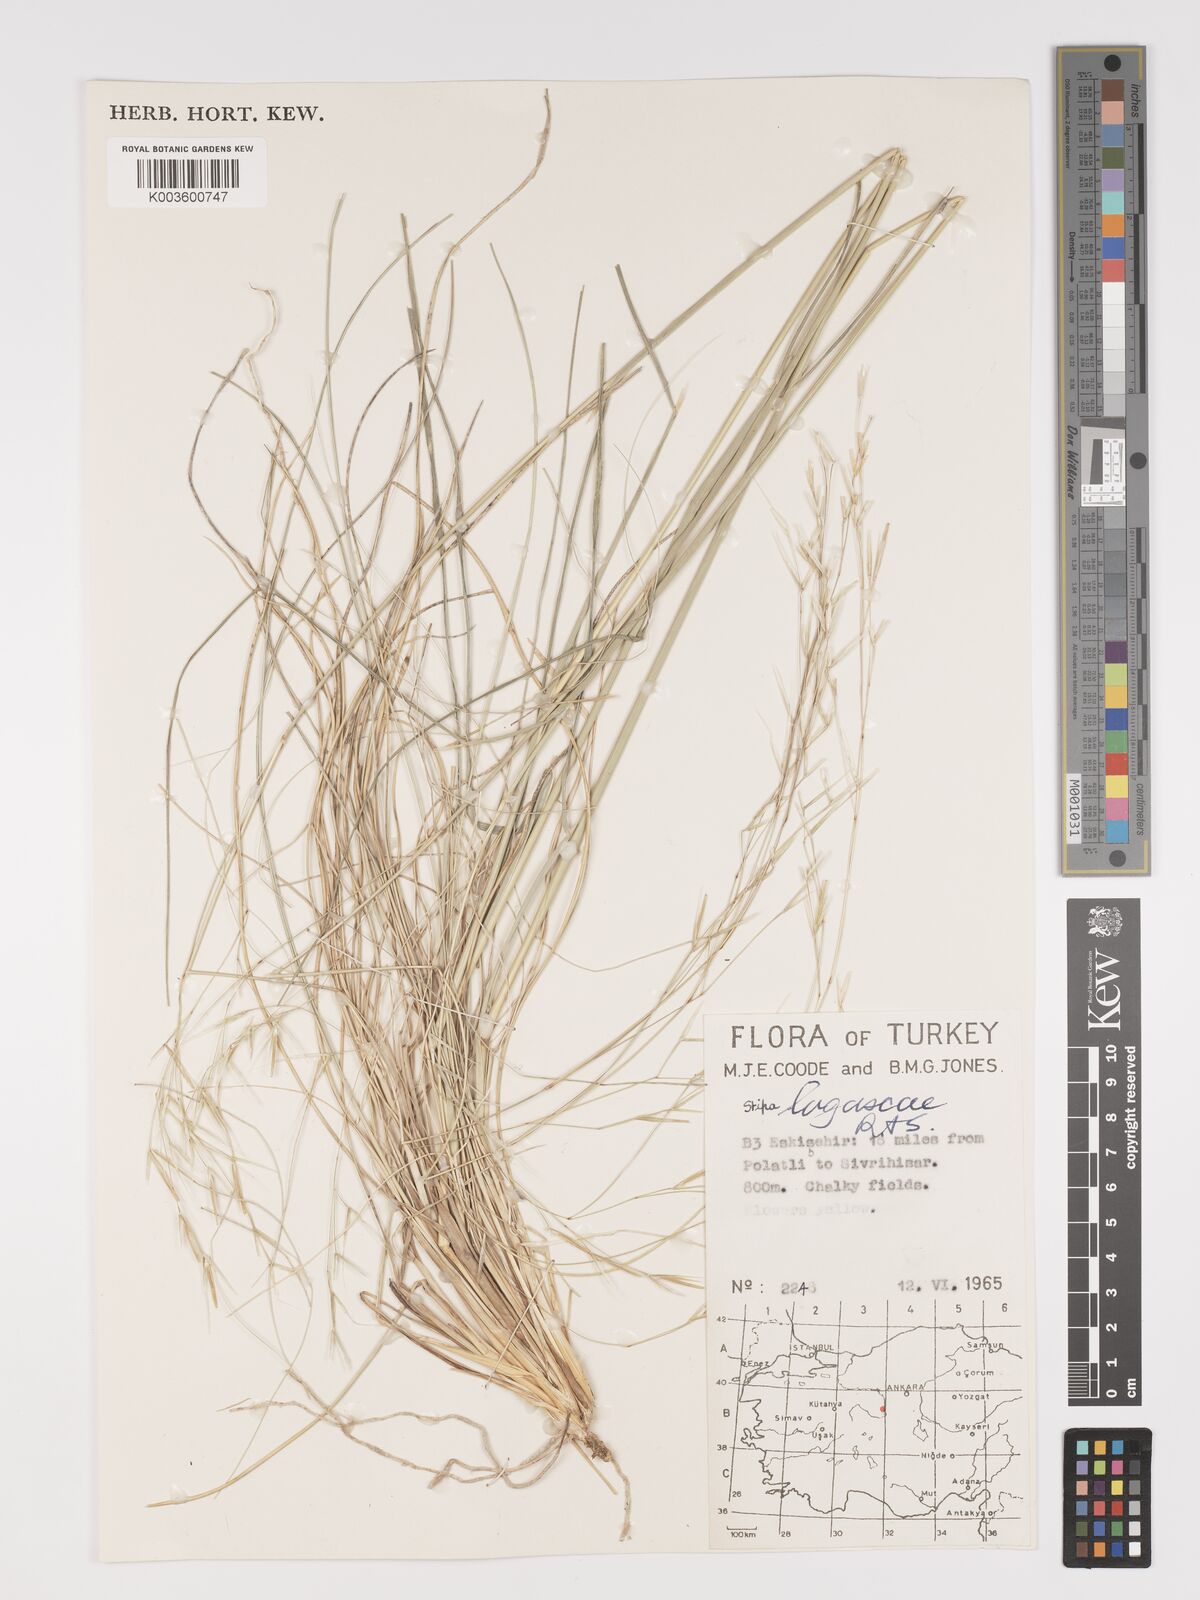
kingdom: Plantae
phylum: Tracheophyta
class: Liliopsida
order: Poales
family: Poaceae
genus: Stipa
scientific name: Stipa lagascae
